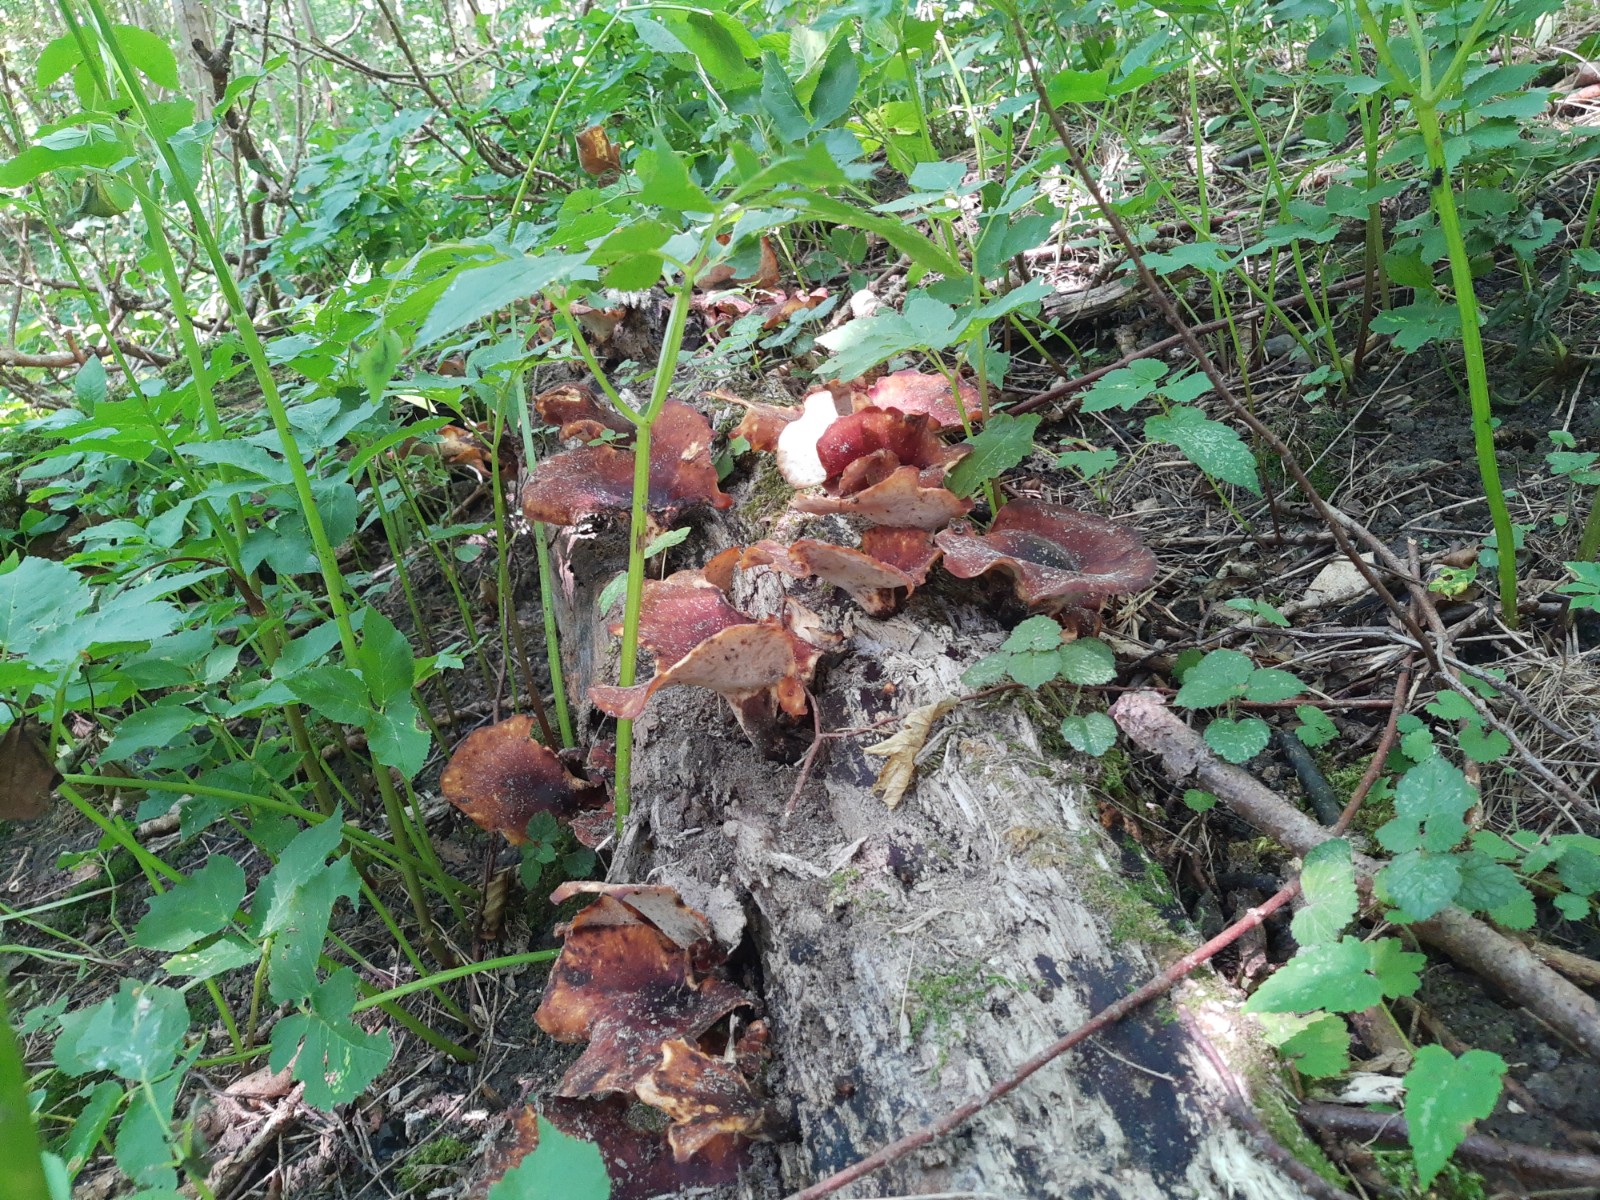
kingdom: Fungi
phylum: Basidiomycota
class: Agaricomycetes
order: Polyporales
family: Polyporaceae
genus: Picipes
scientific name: Picipes badius
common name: kastaniebrun stilkporesvamp
